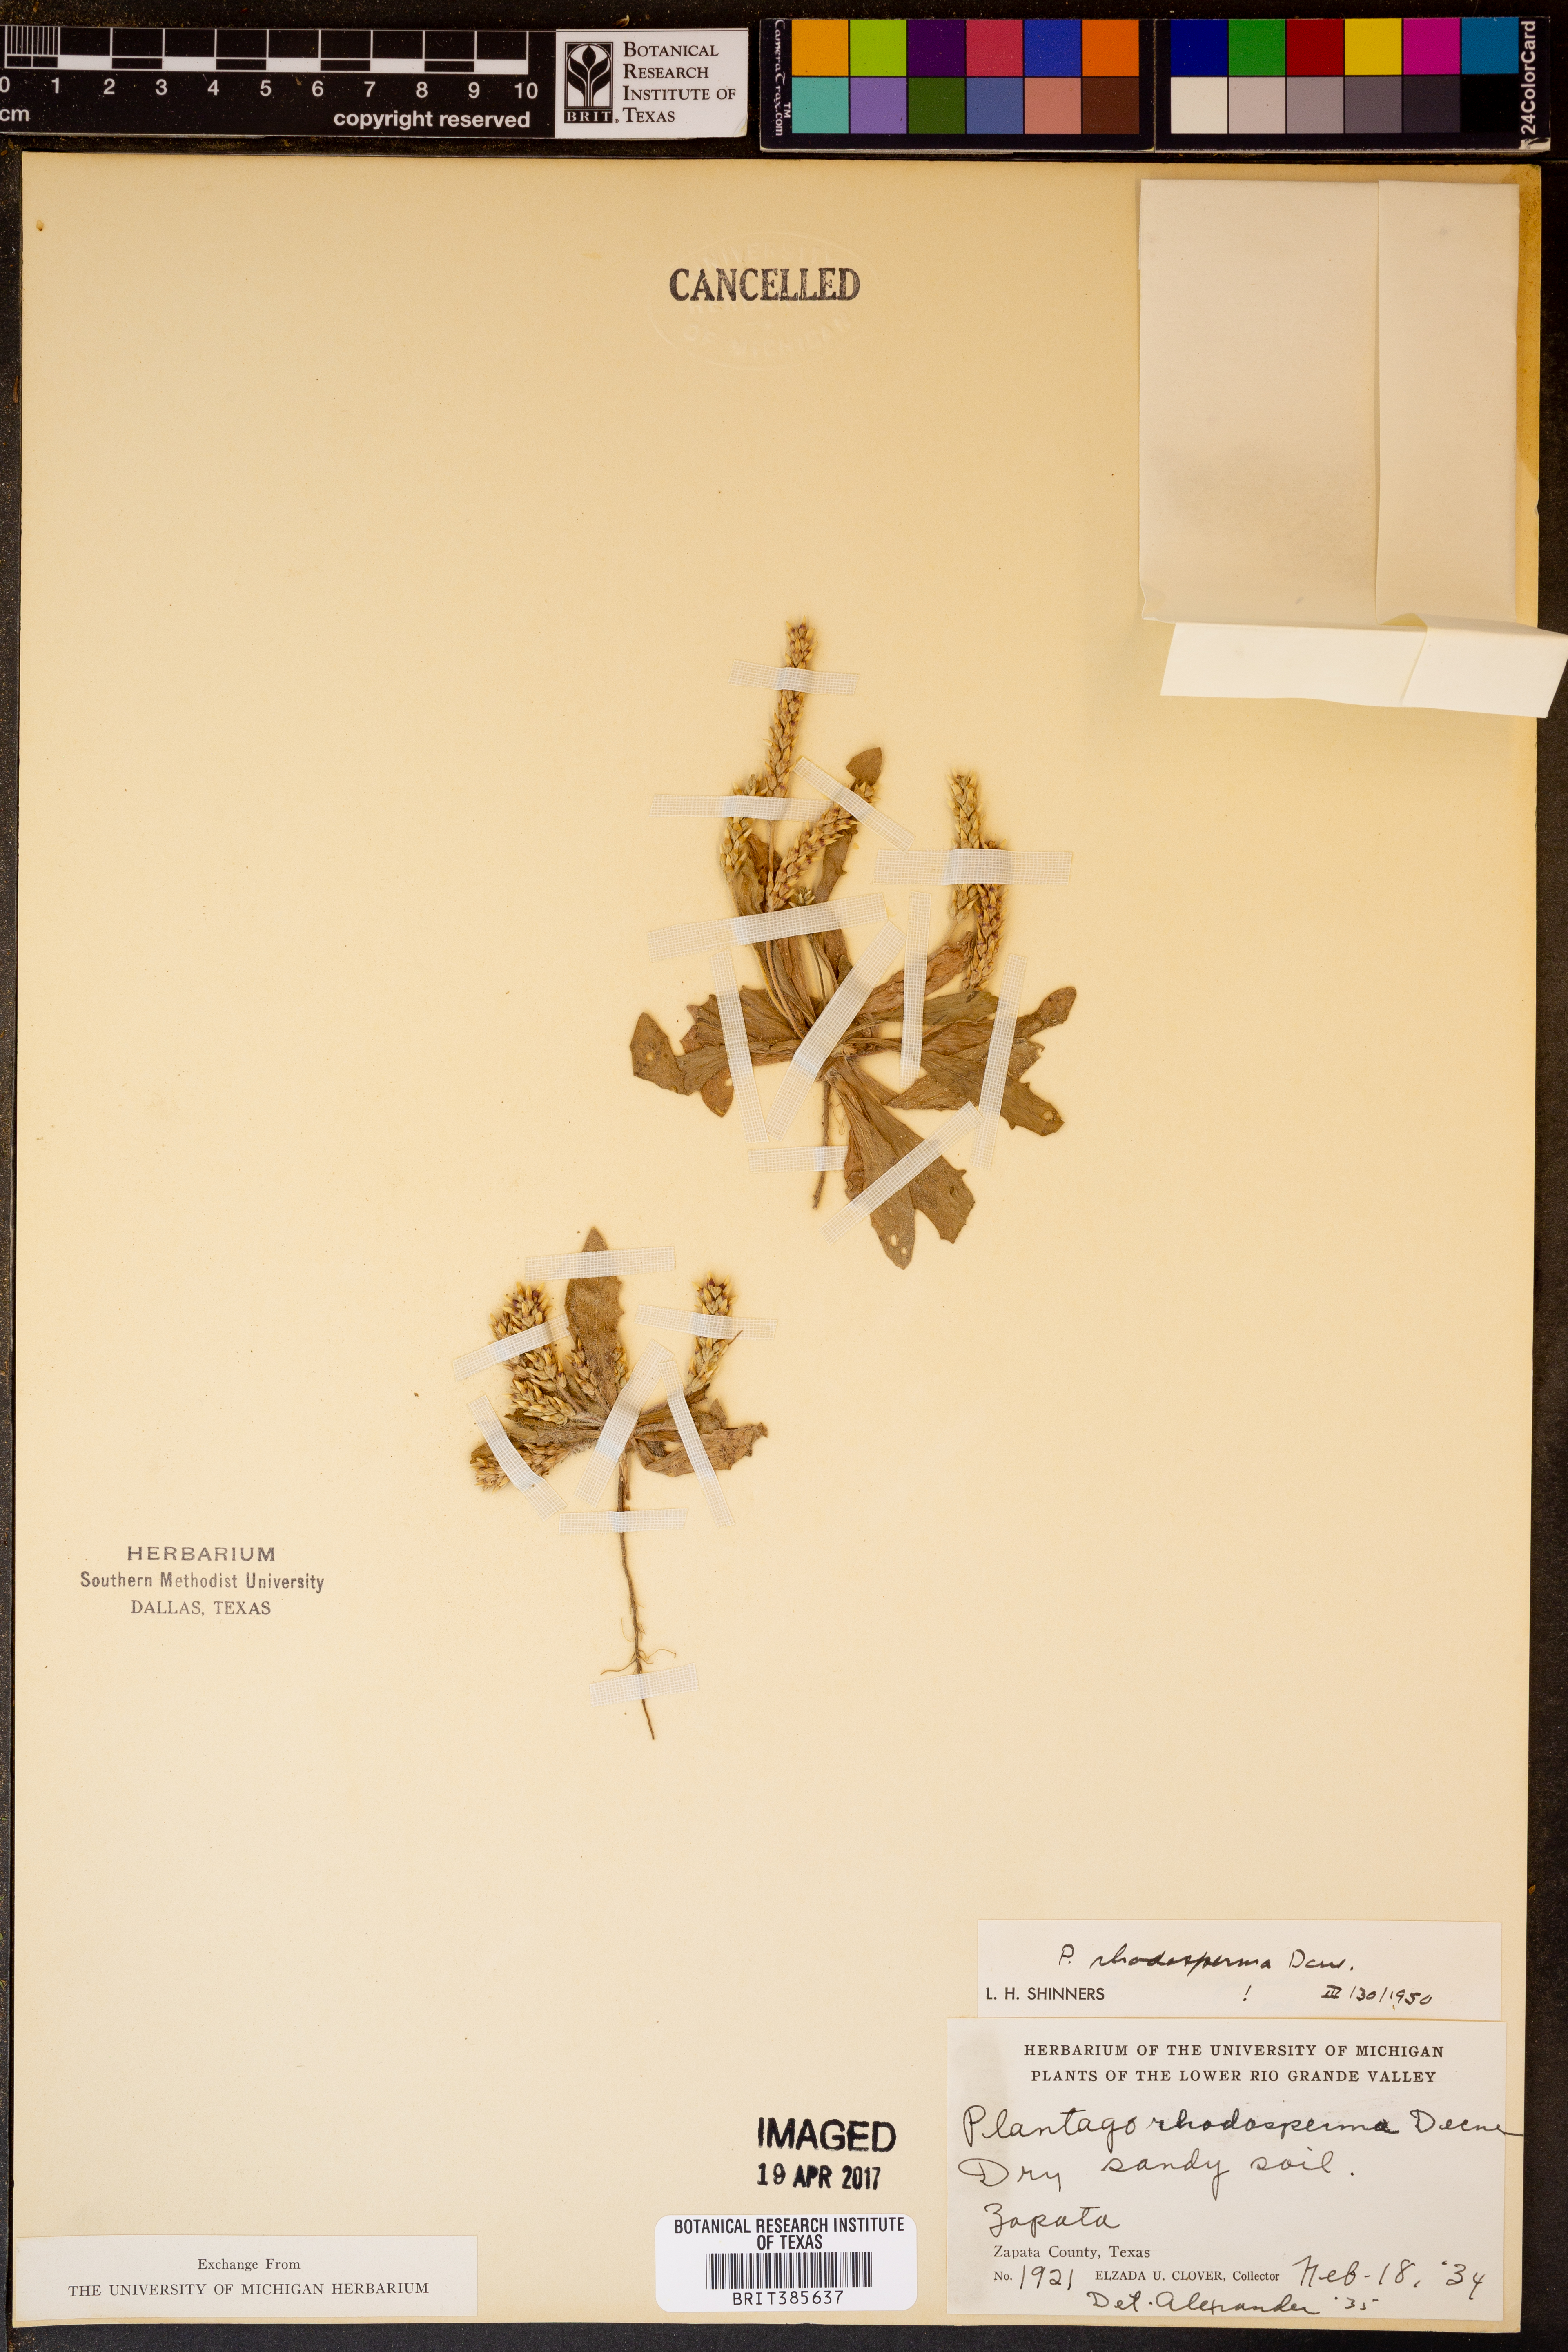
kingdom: Plantae
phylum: Tracheophyta
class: Magnoliopsida
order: Lamiales
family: Plantaginaceae
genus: Plantago
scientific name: Plantago rhodosperma
